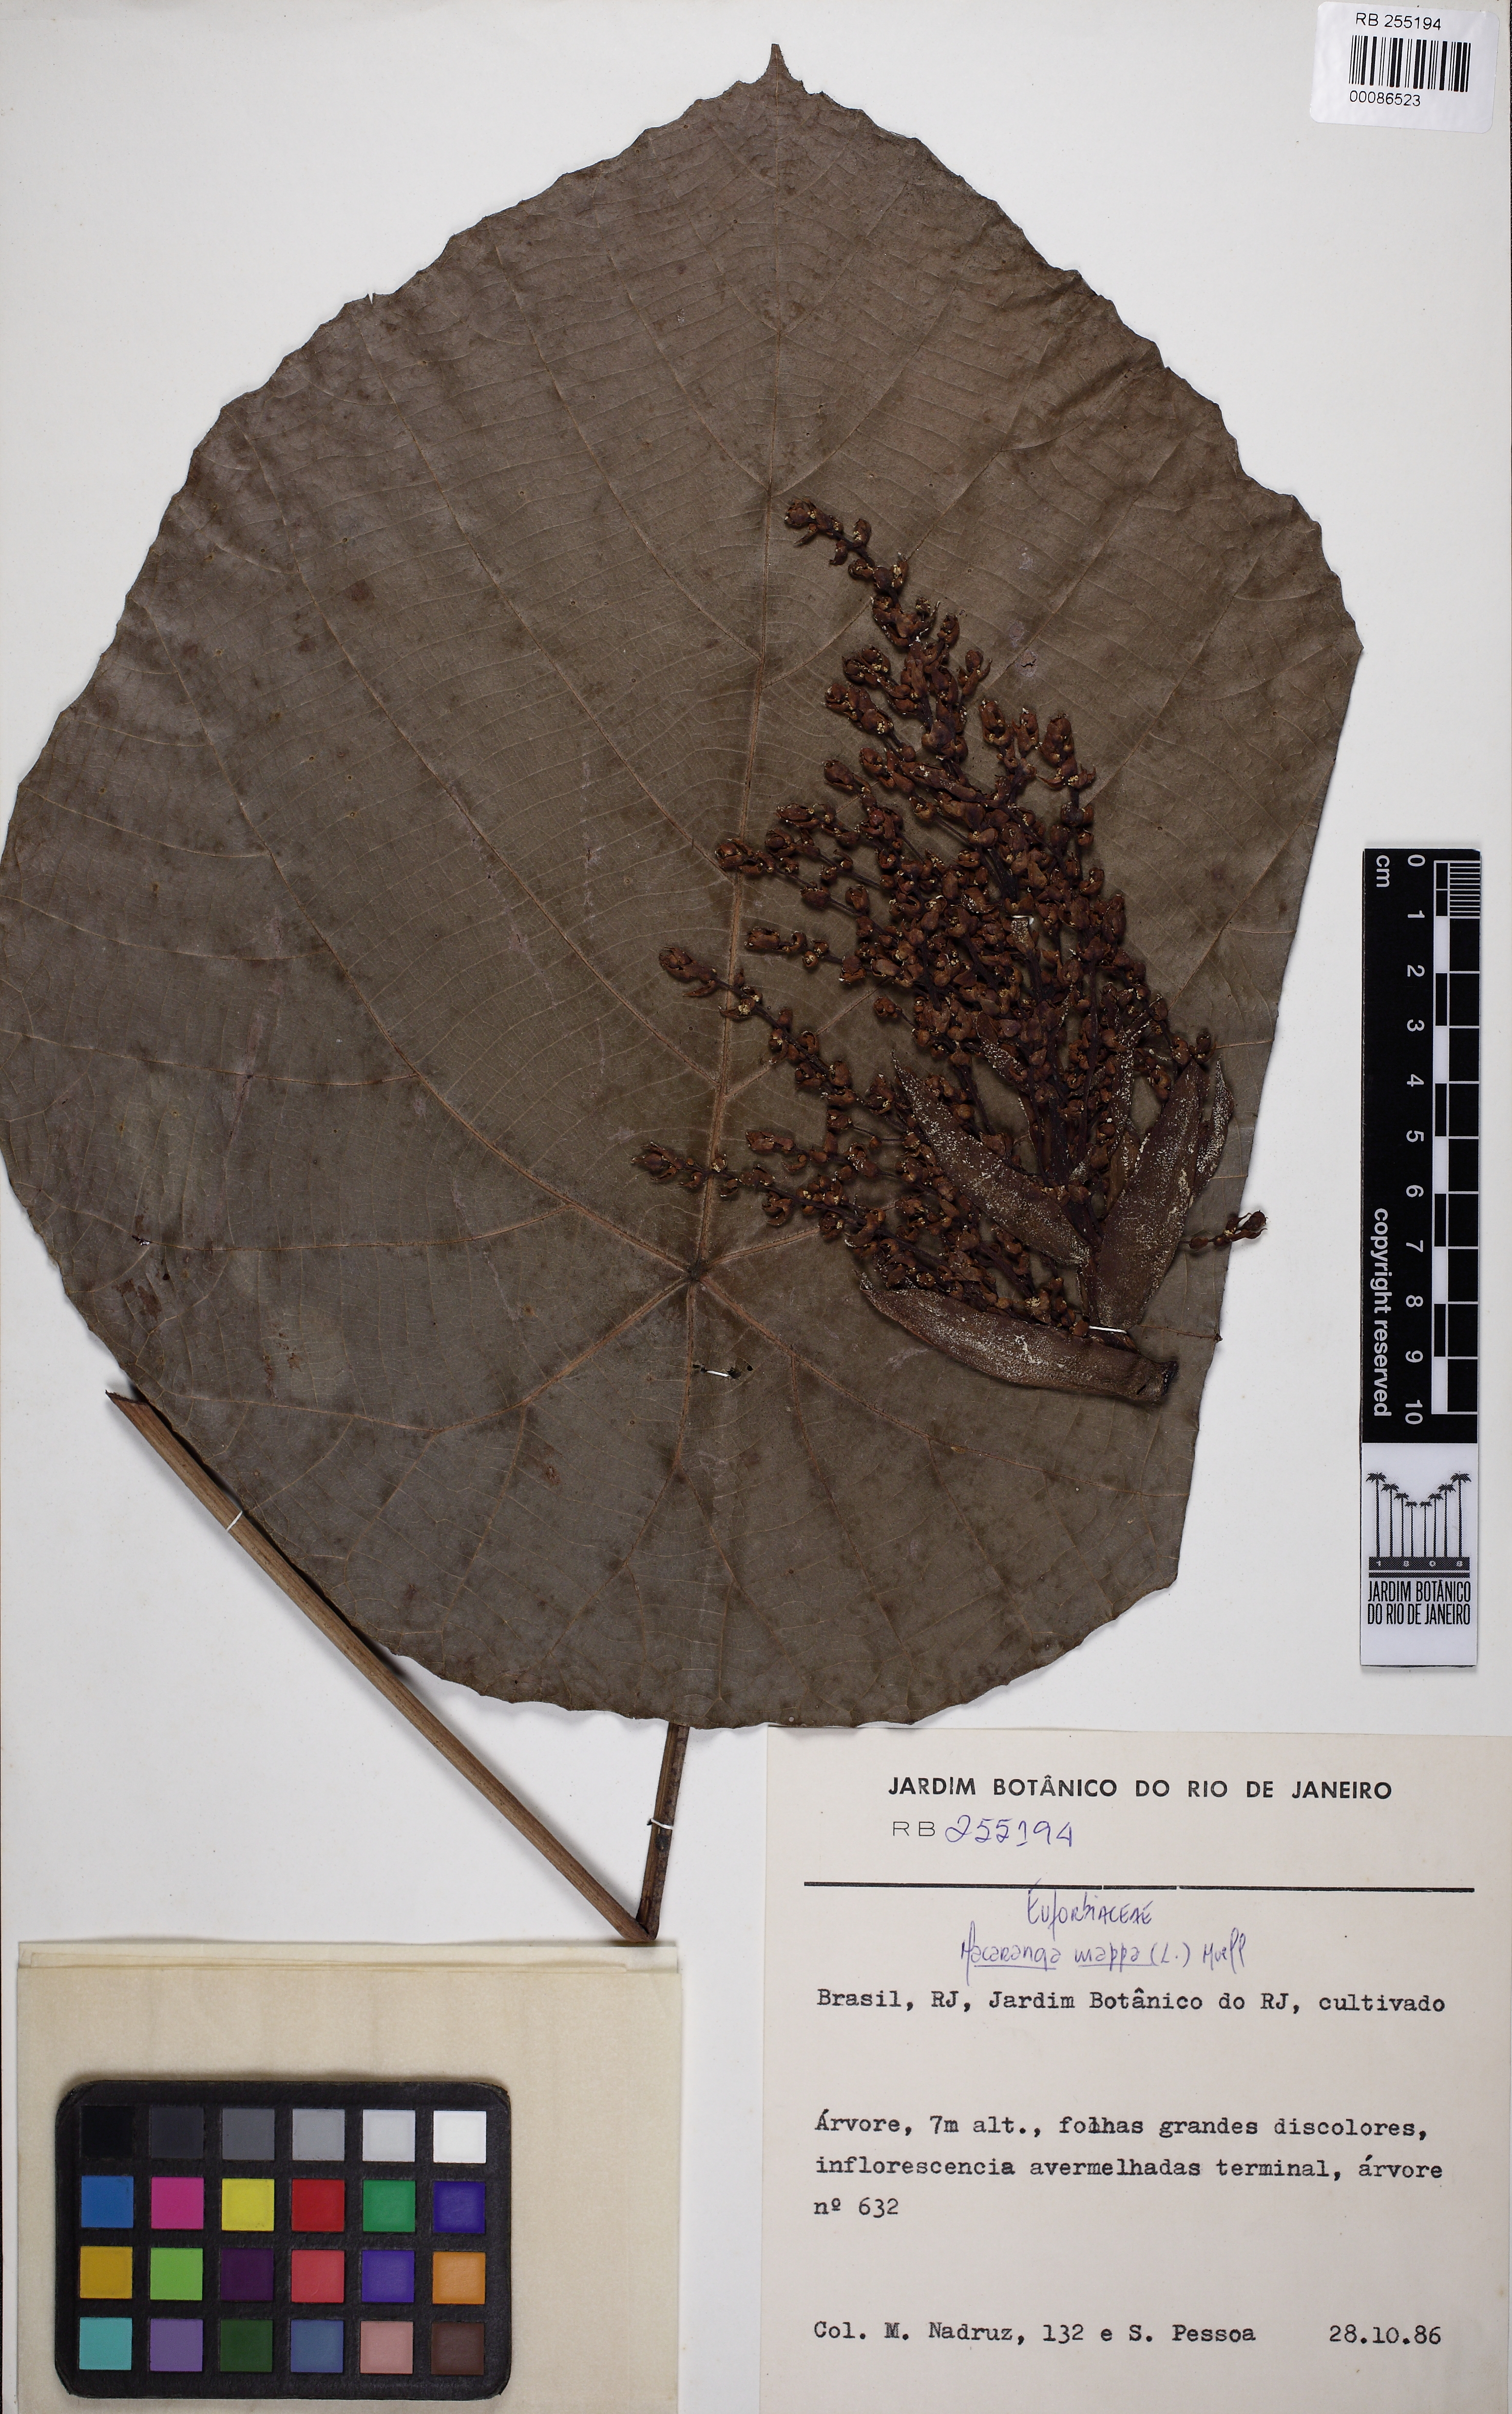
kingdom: Plantae
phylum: Tracheophyta
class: Magnoliopsida
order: Malpighiales
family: Euphorbiaceae
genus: Macaranga
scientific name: Macaranga mappa
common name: Pengua
